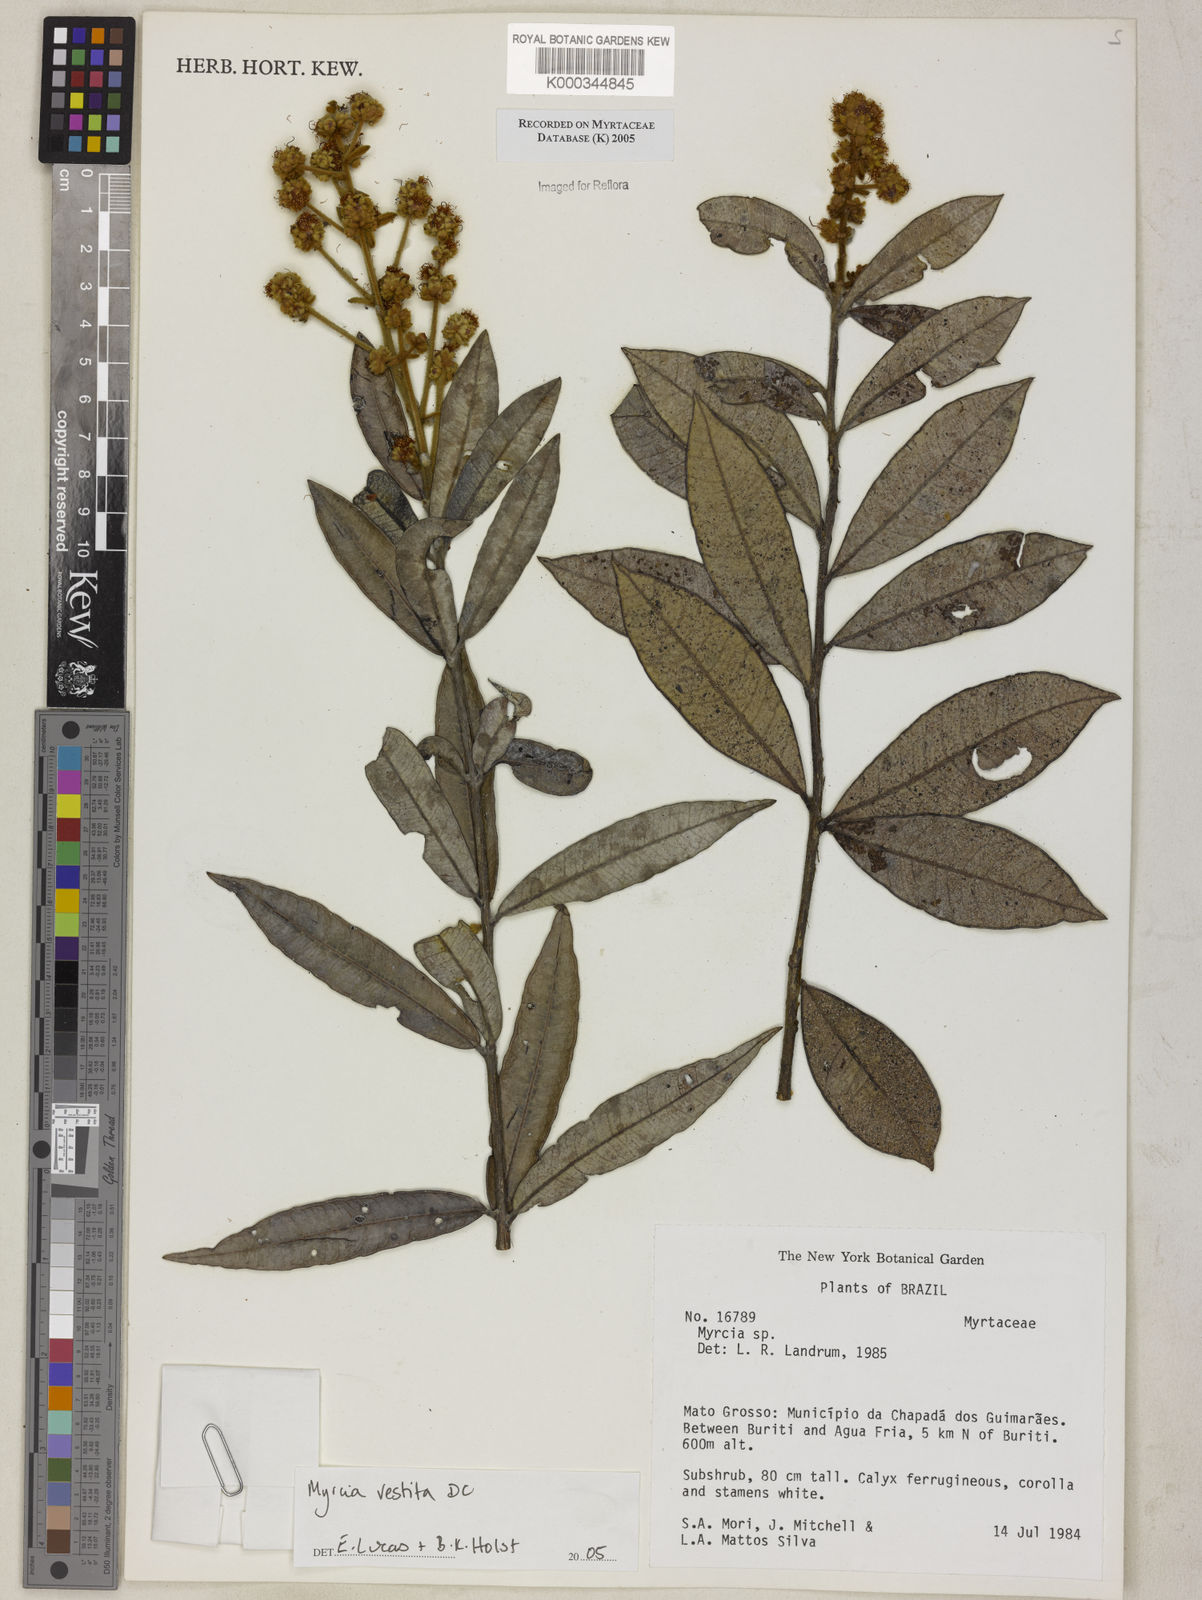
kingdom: Plantae
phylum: Tracheophyta
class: Magnoliopsida
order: Myrtales
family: Myrtaceae
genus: Myrcia
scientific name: Myrcia vestita
